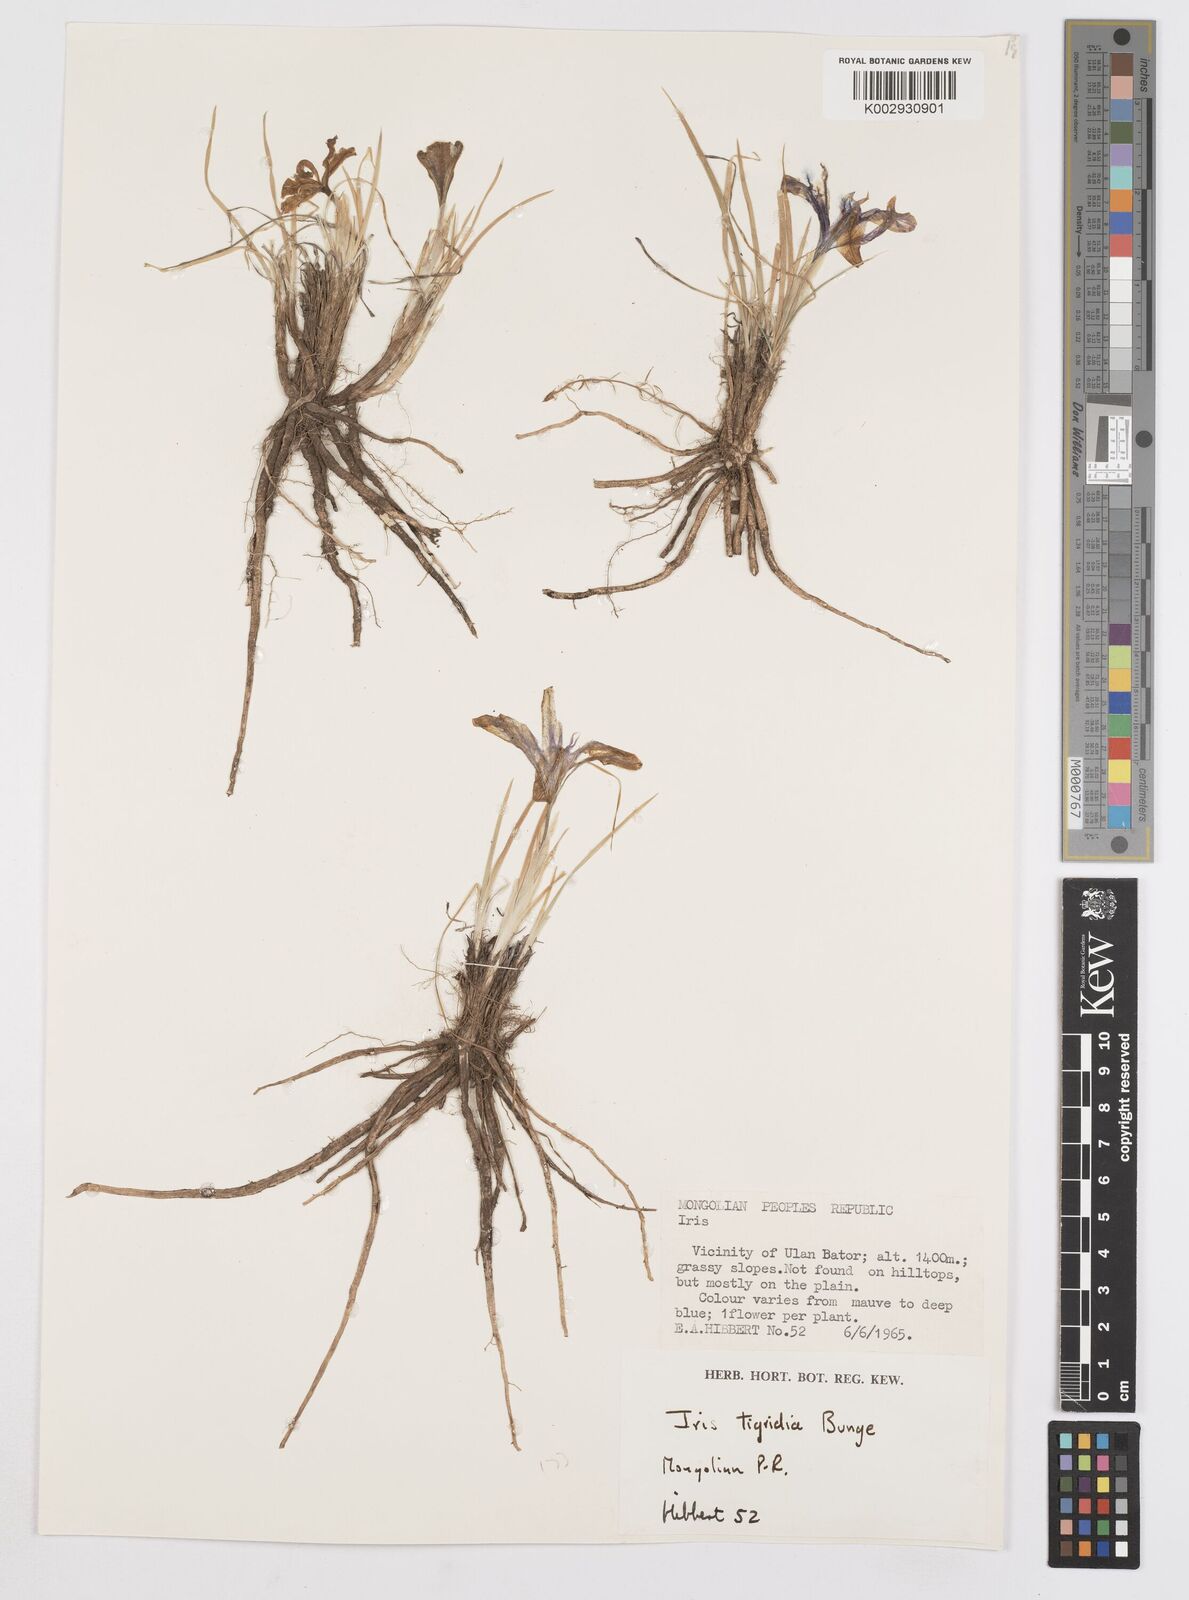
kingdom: Plantae
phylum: Tracheophyta
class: Liliopsida
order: Asparagales
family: Iridaceae
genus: Iris
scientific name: Iris tigridia
